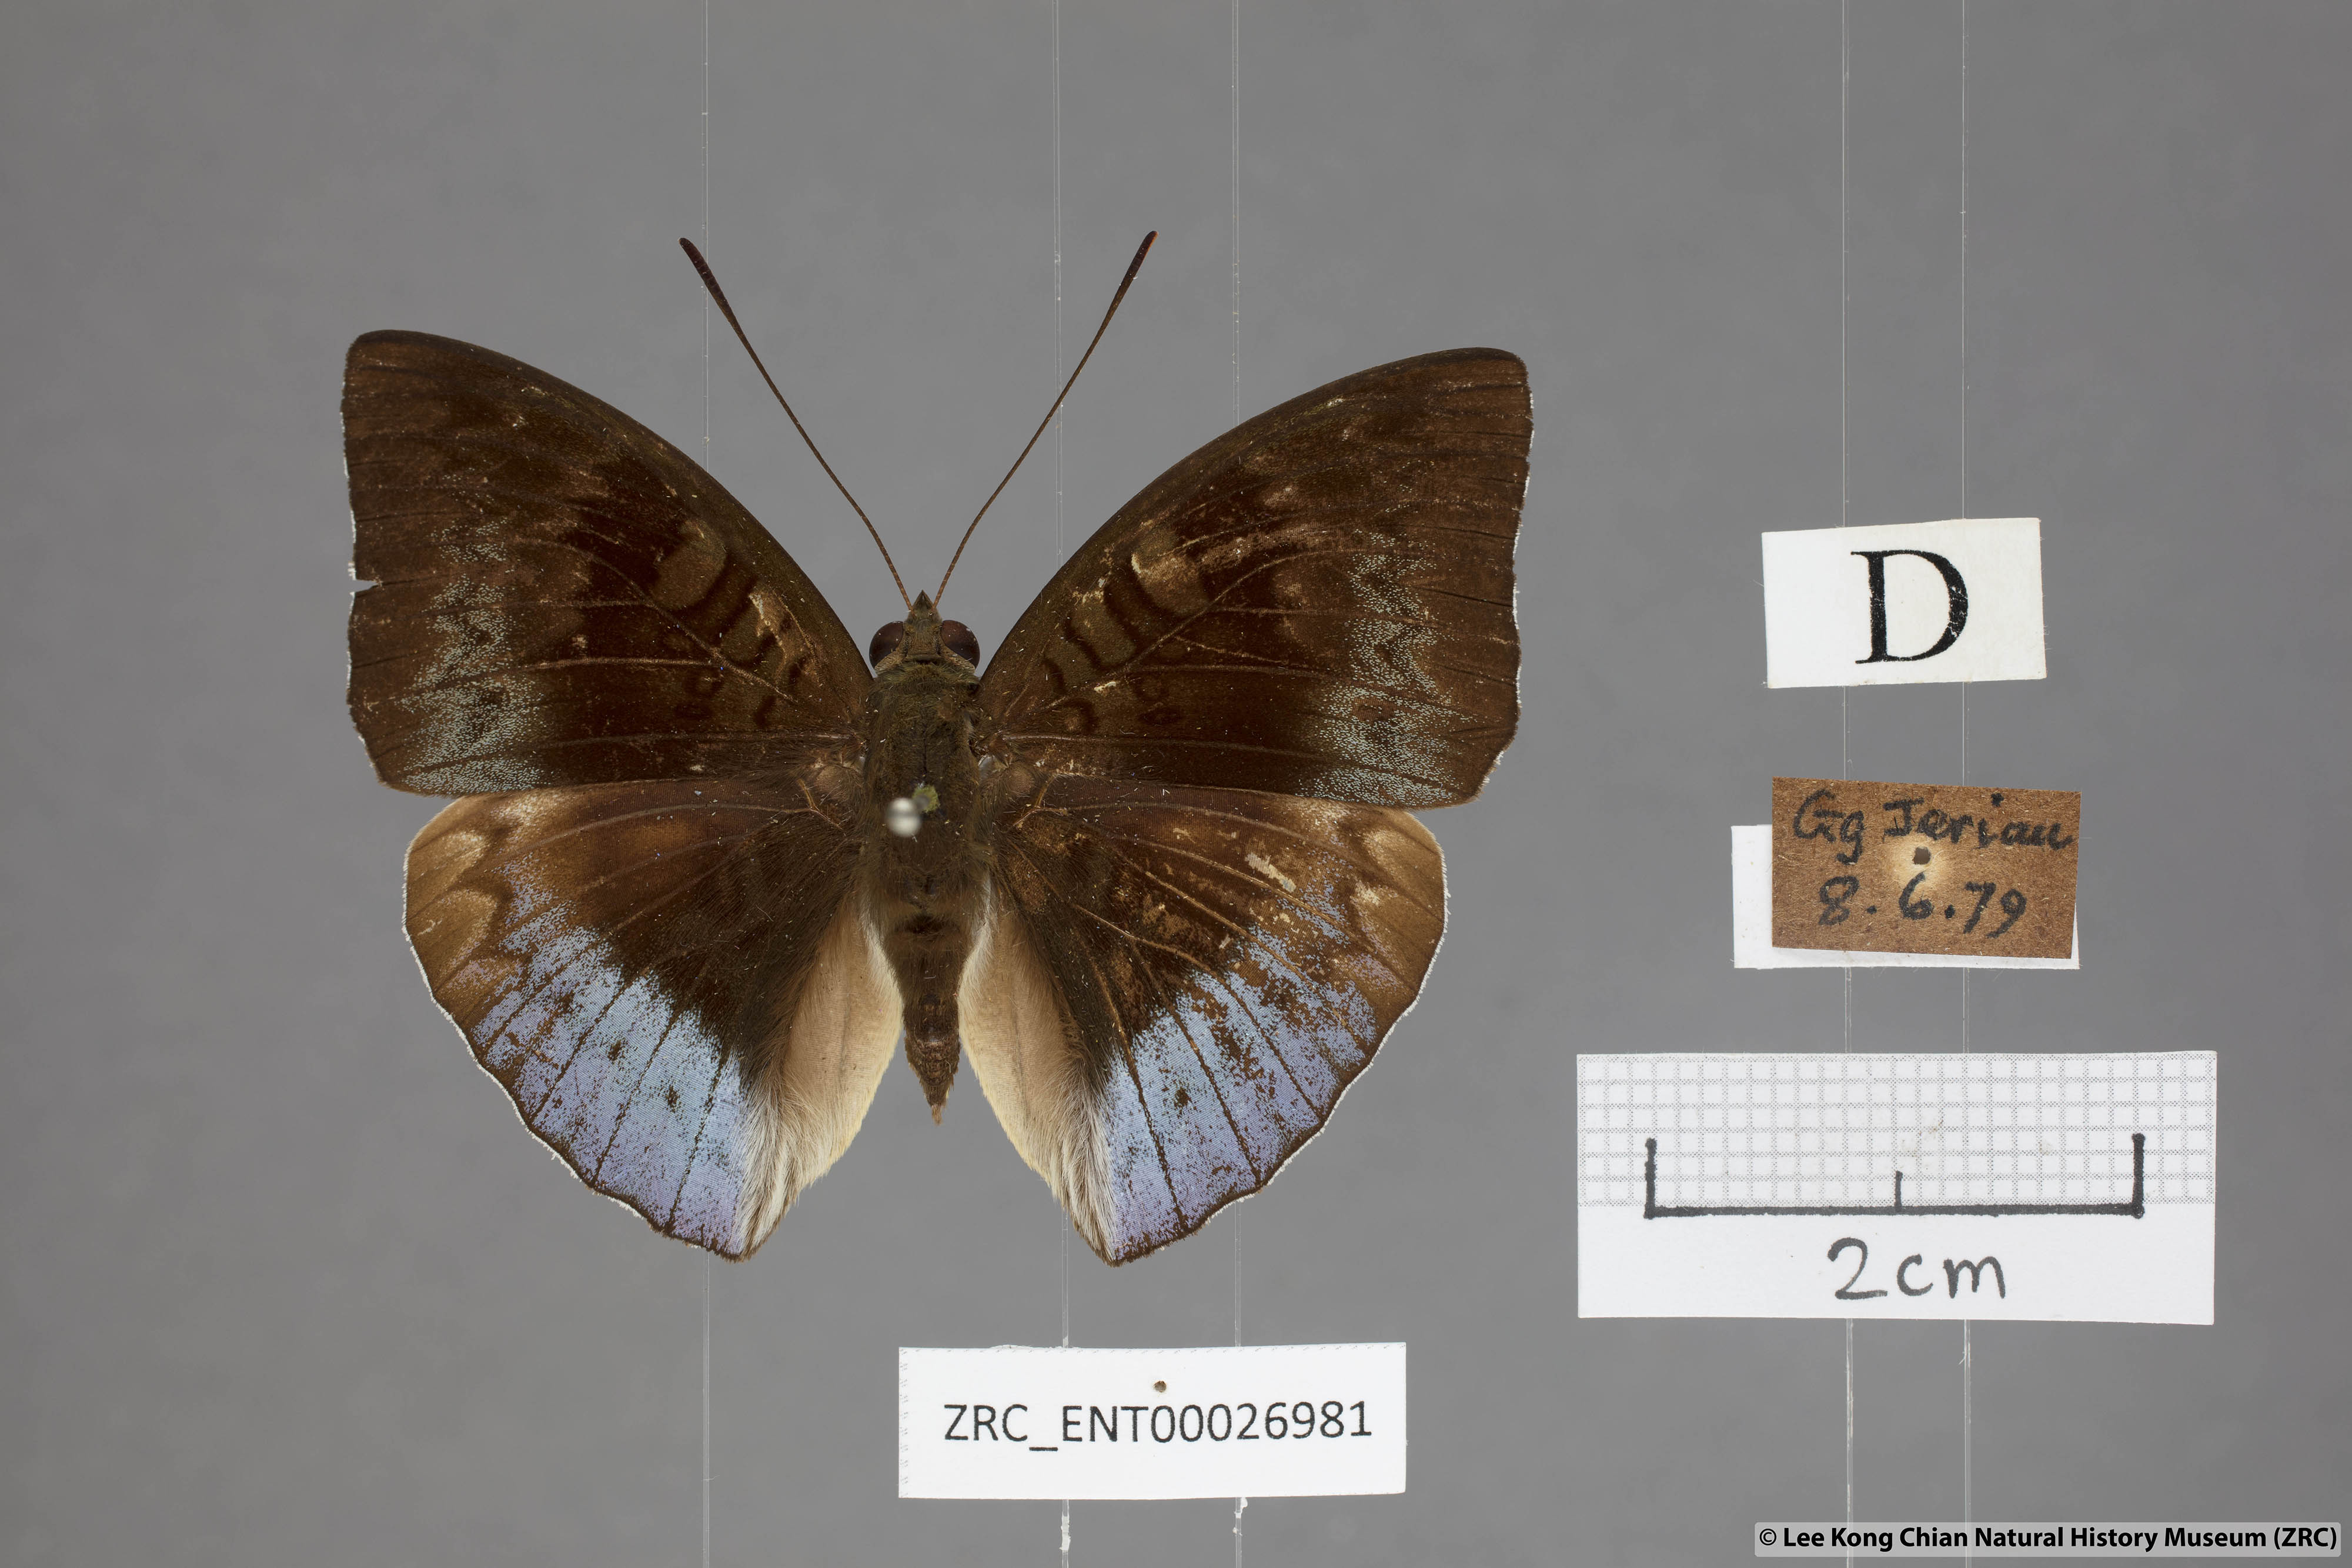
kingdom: Animalia
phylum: Arthropoda
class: Insecta
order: Lepidoptera
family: Nymphalidae
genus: Euthalia
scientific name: Euthalia monina
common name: Powdered baron
